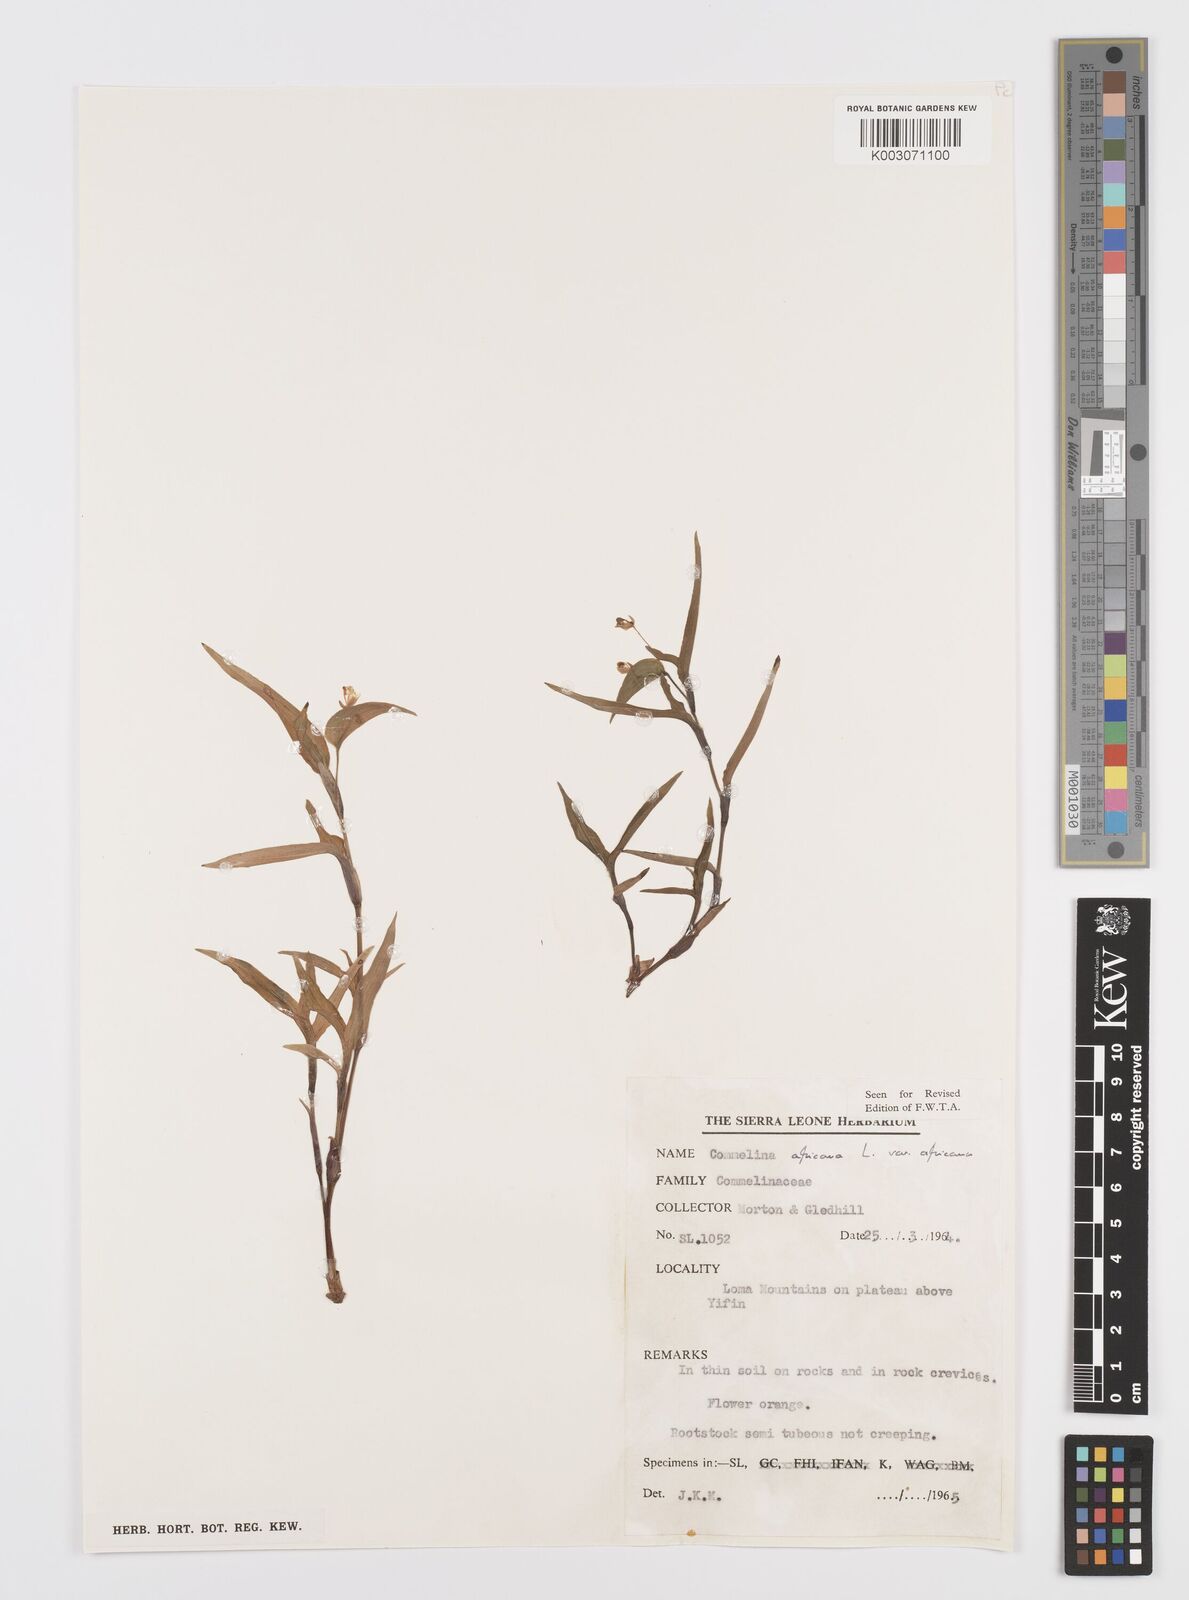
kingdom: Plantae
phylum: Tracheophyta
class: Liliopsida
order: Commelinales
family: Commelinaceae
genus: Commelina
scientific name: Commelina africana
